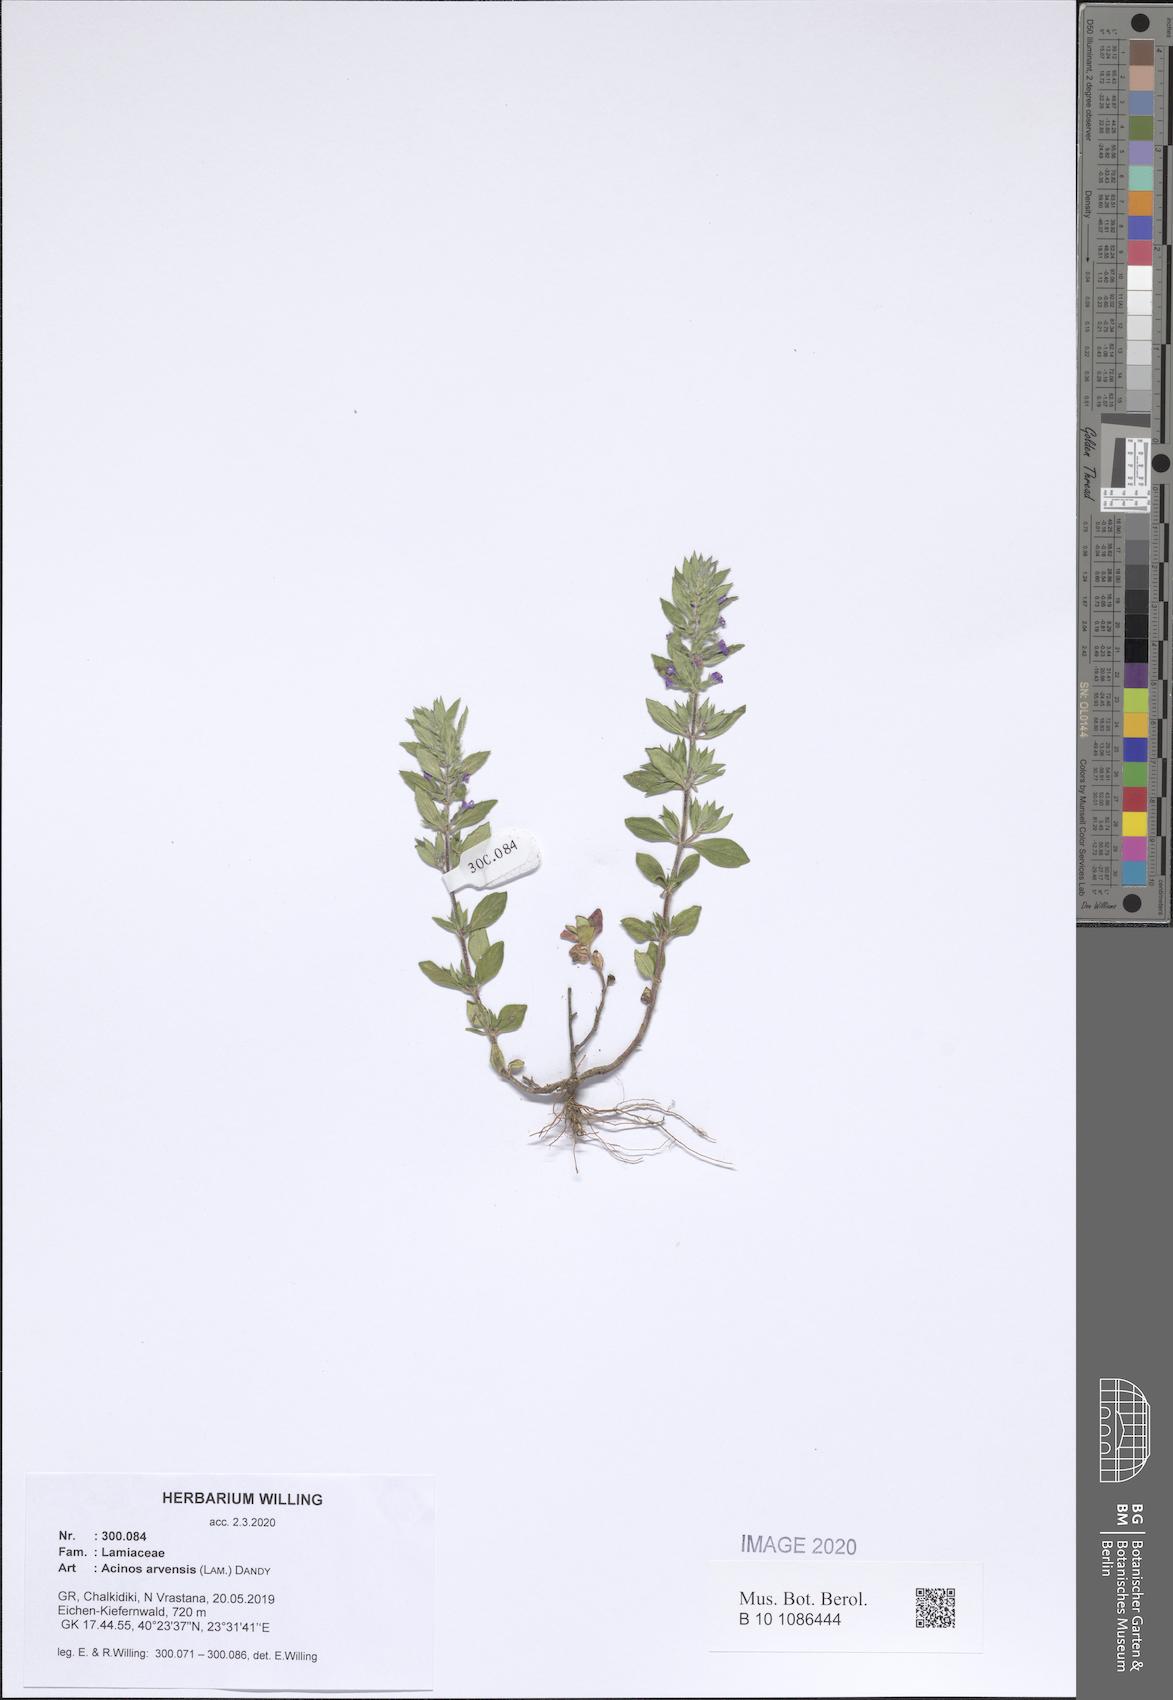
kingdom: Plantae
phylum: Tracheophyta
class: Magnoliopsida
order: Lamiales
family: Lamiaceae
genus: Clinopodium
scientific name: Clinopodium acinos
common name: Basil thyme
